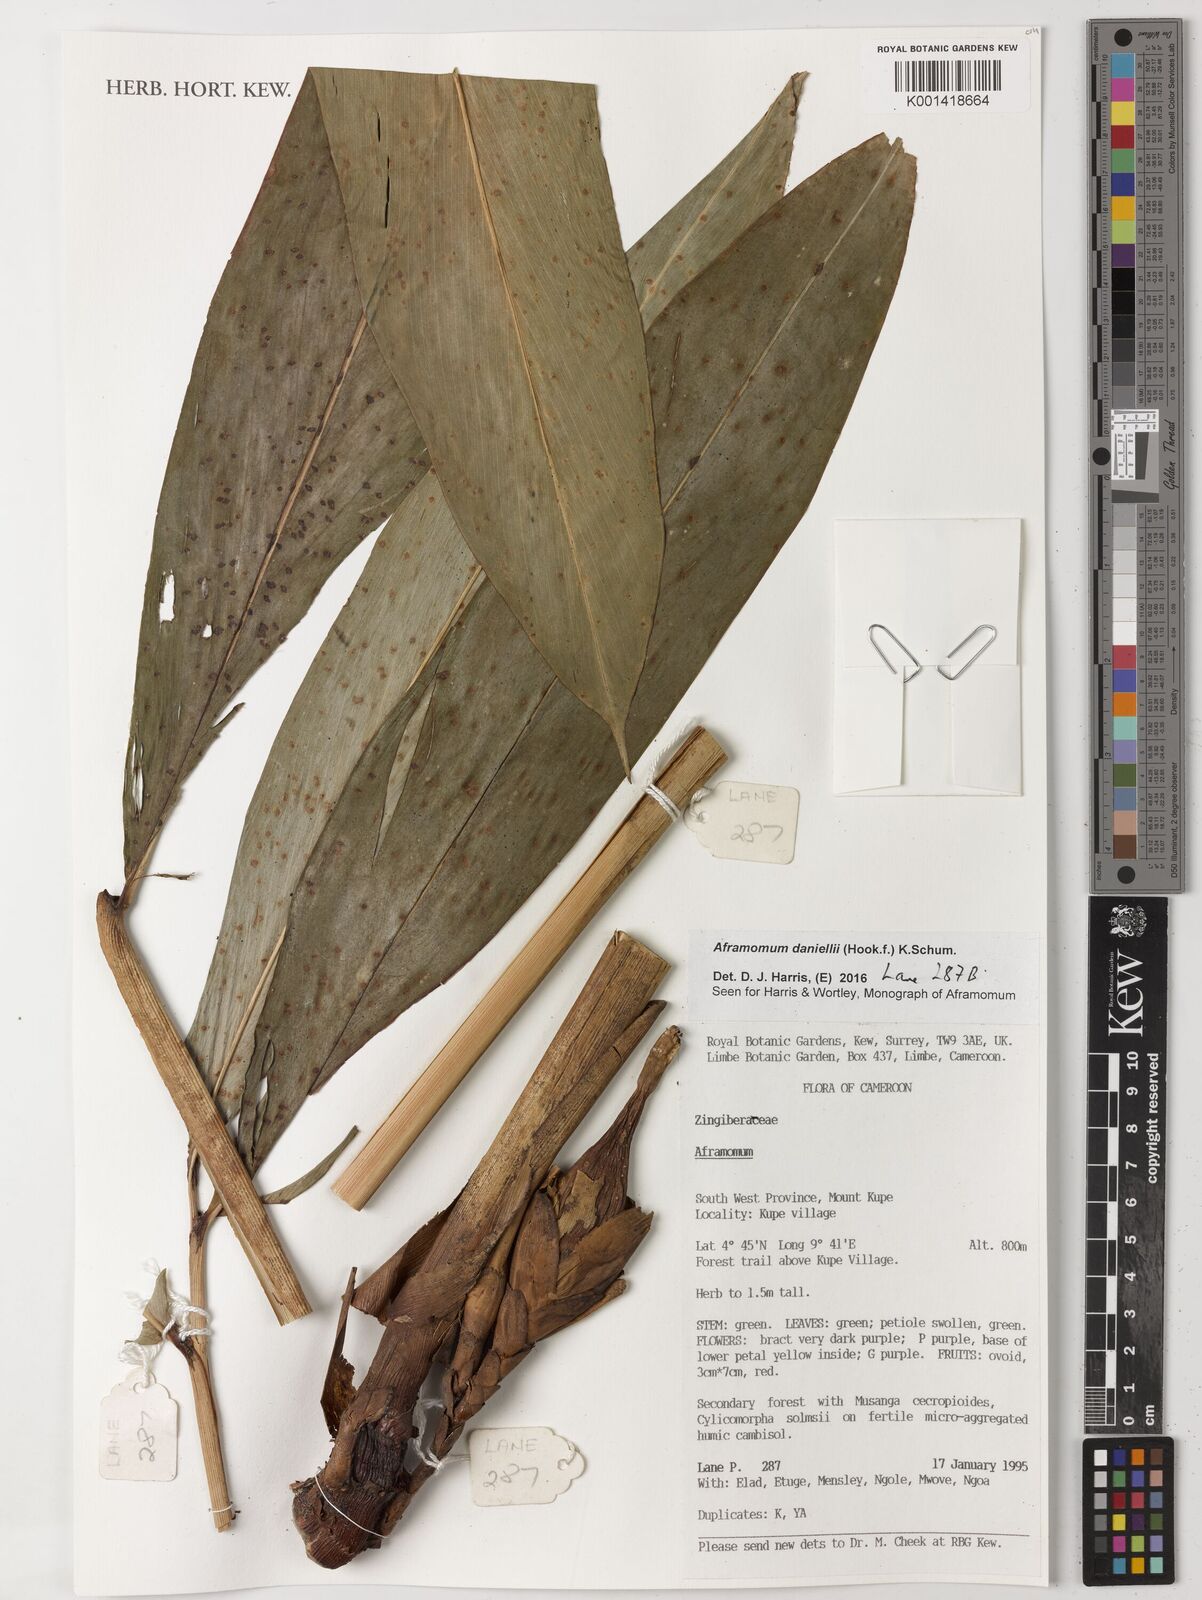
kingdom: Plantae
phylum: Tracheophyta
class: Liliopsida
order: Zingiberales
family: Zingiberaceae
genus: Aframomum
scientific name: Aframomum daniellii
